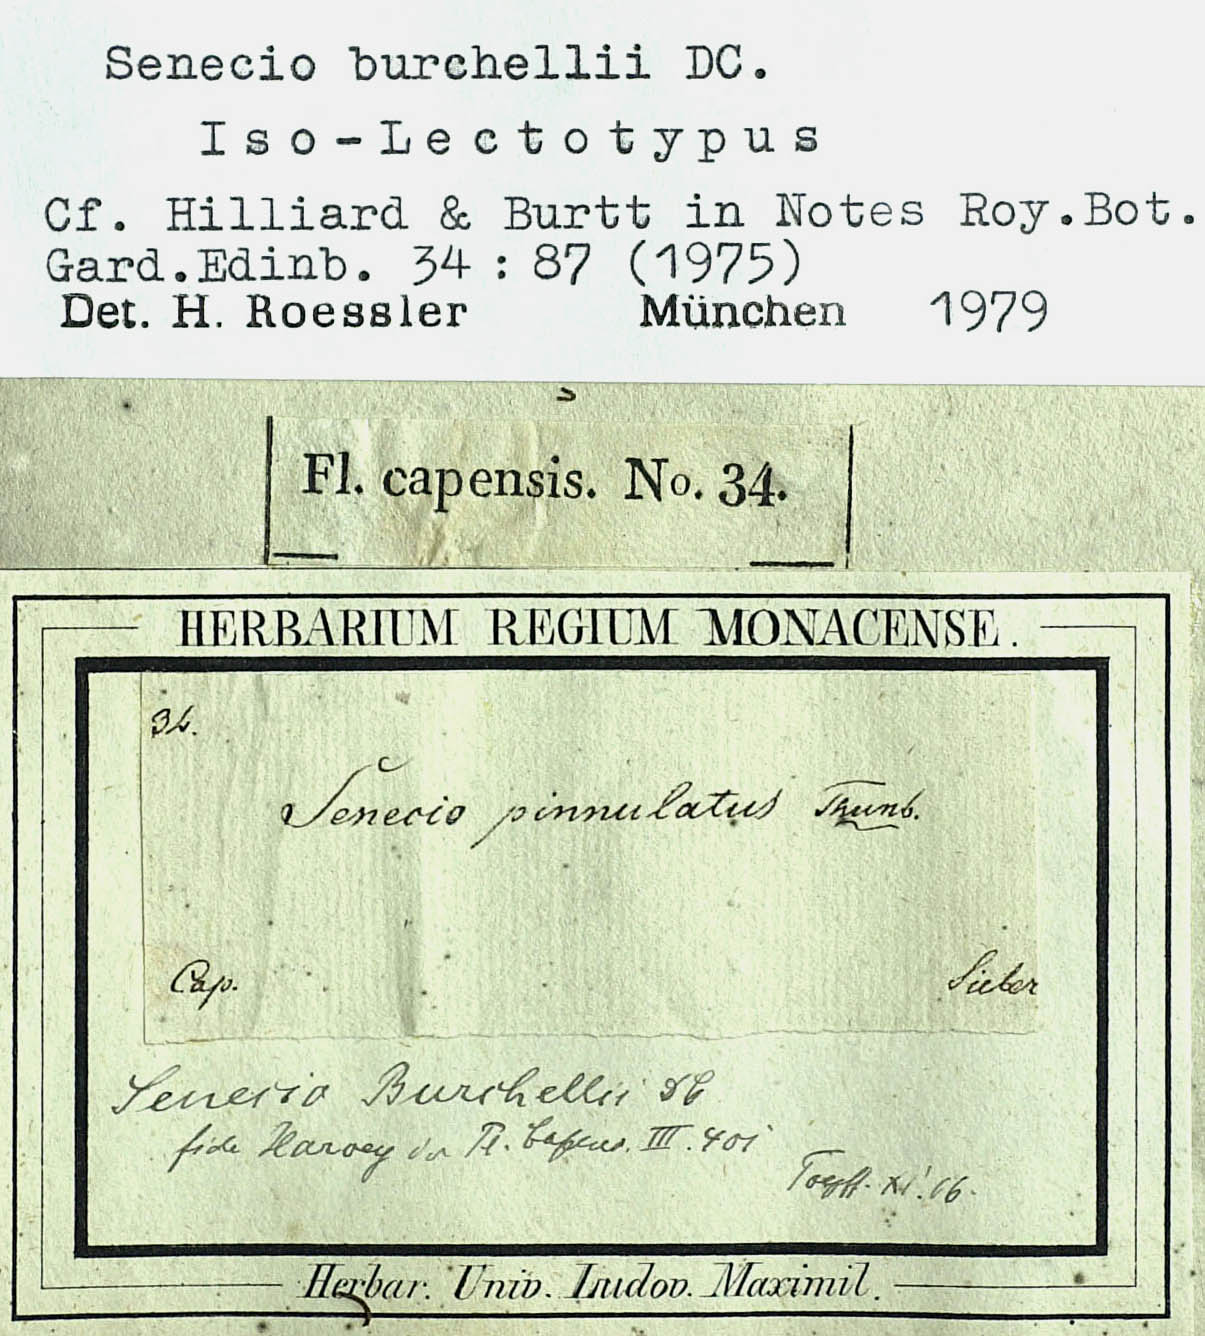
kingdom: Plantae
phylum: Tracheophyta
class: Magnoliopsida
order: Asterales
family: Asteraceae
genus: Senecio
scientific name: Senecio burchellii
